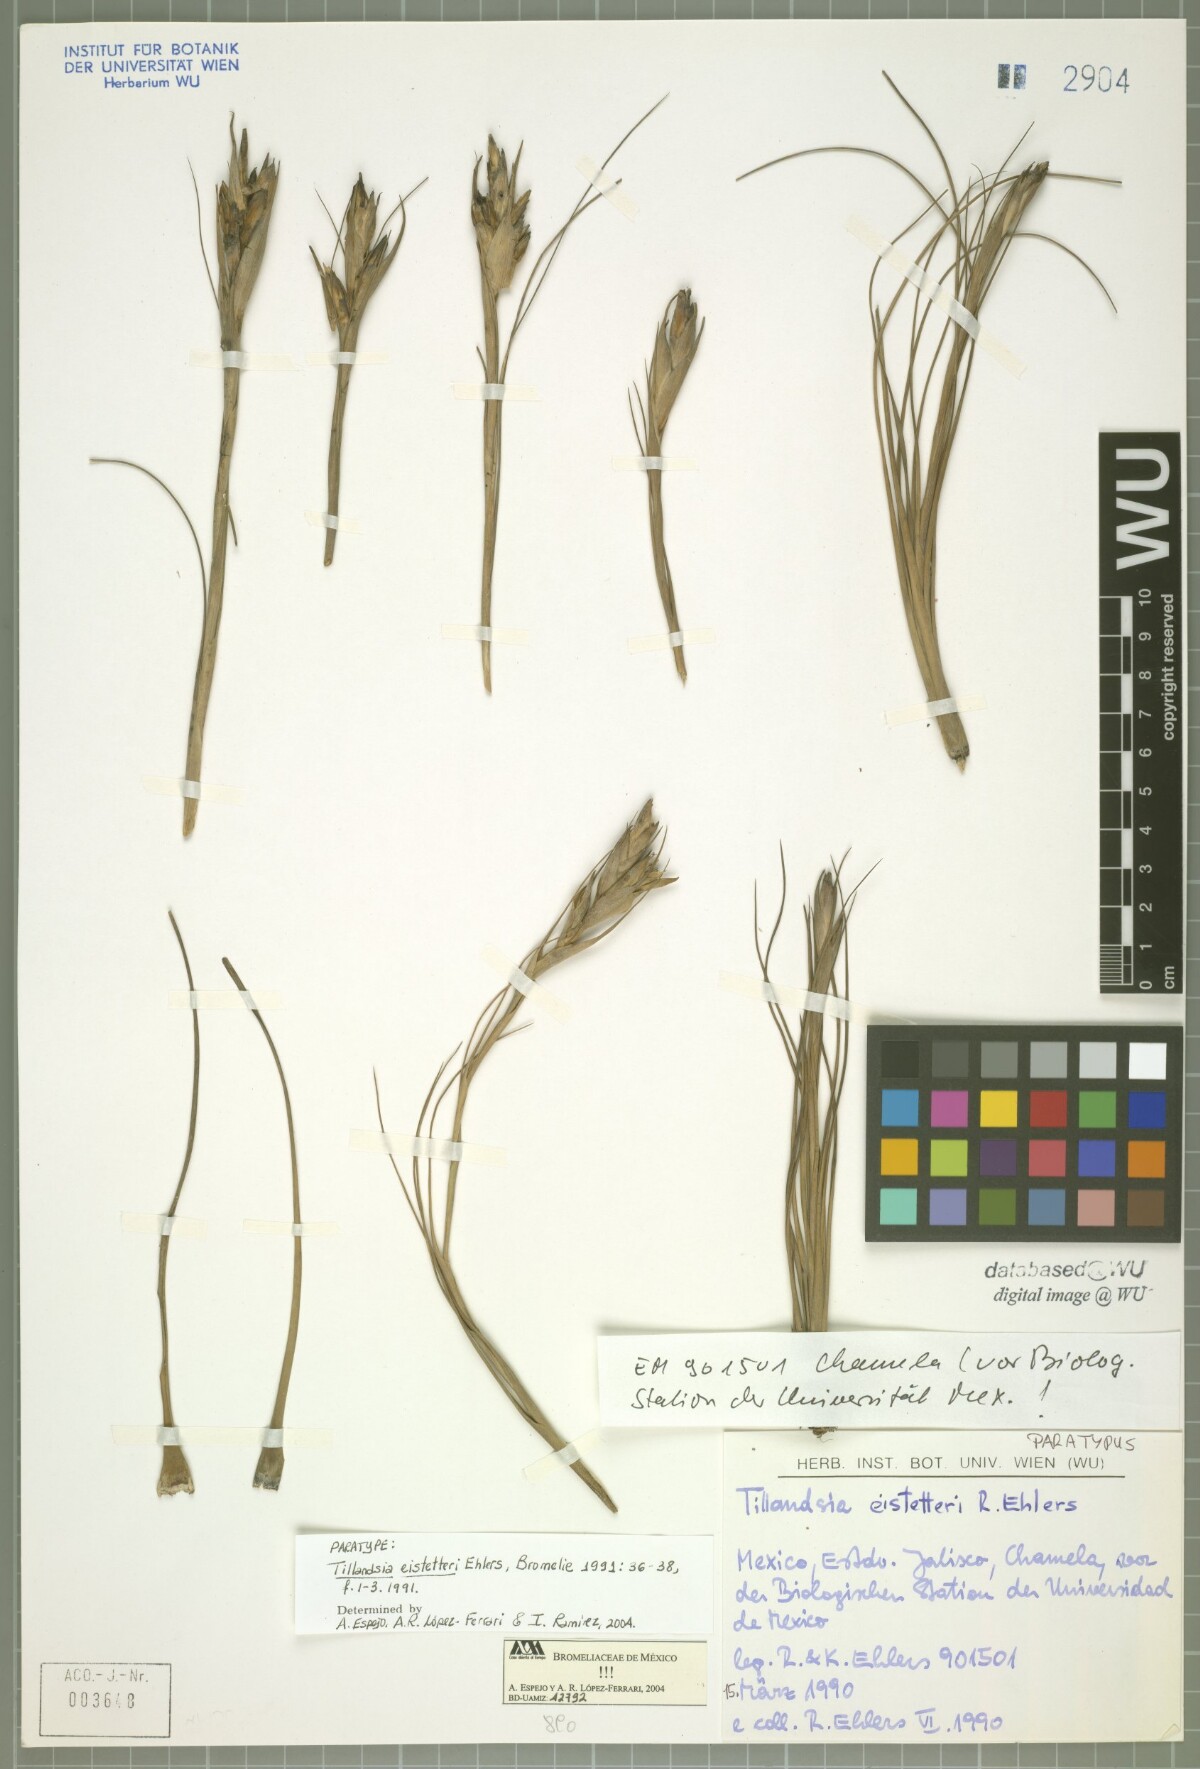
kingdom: Plantae
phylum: Tracheophyta
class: Liliopsida
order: Poales
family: Bromeliaceae
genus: Tillandsia
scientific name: Tillandsia eistetteri
